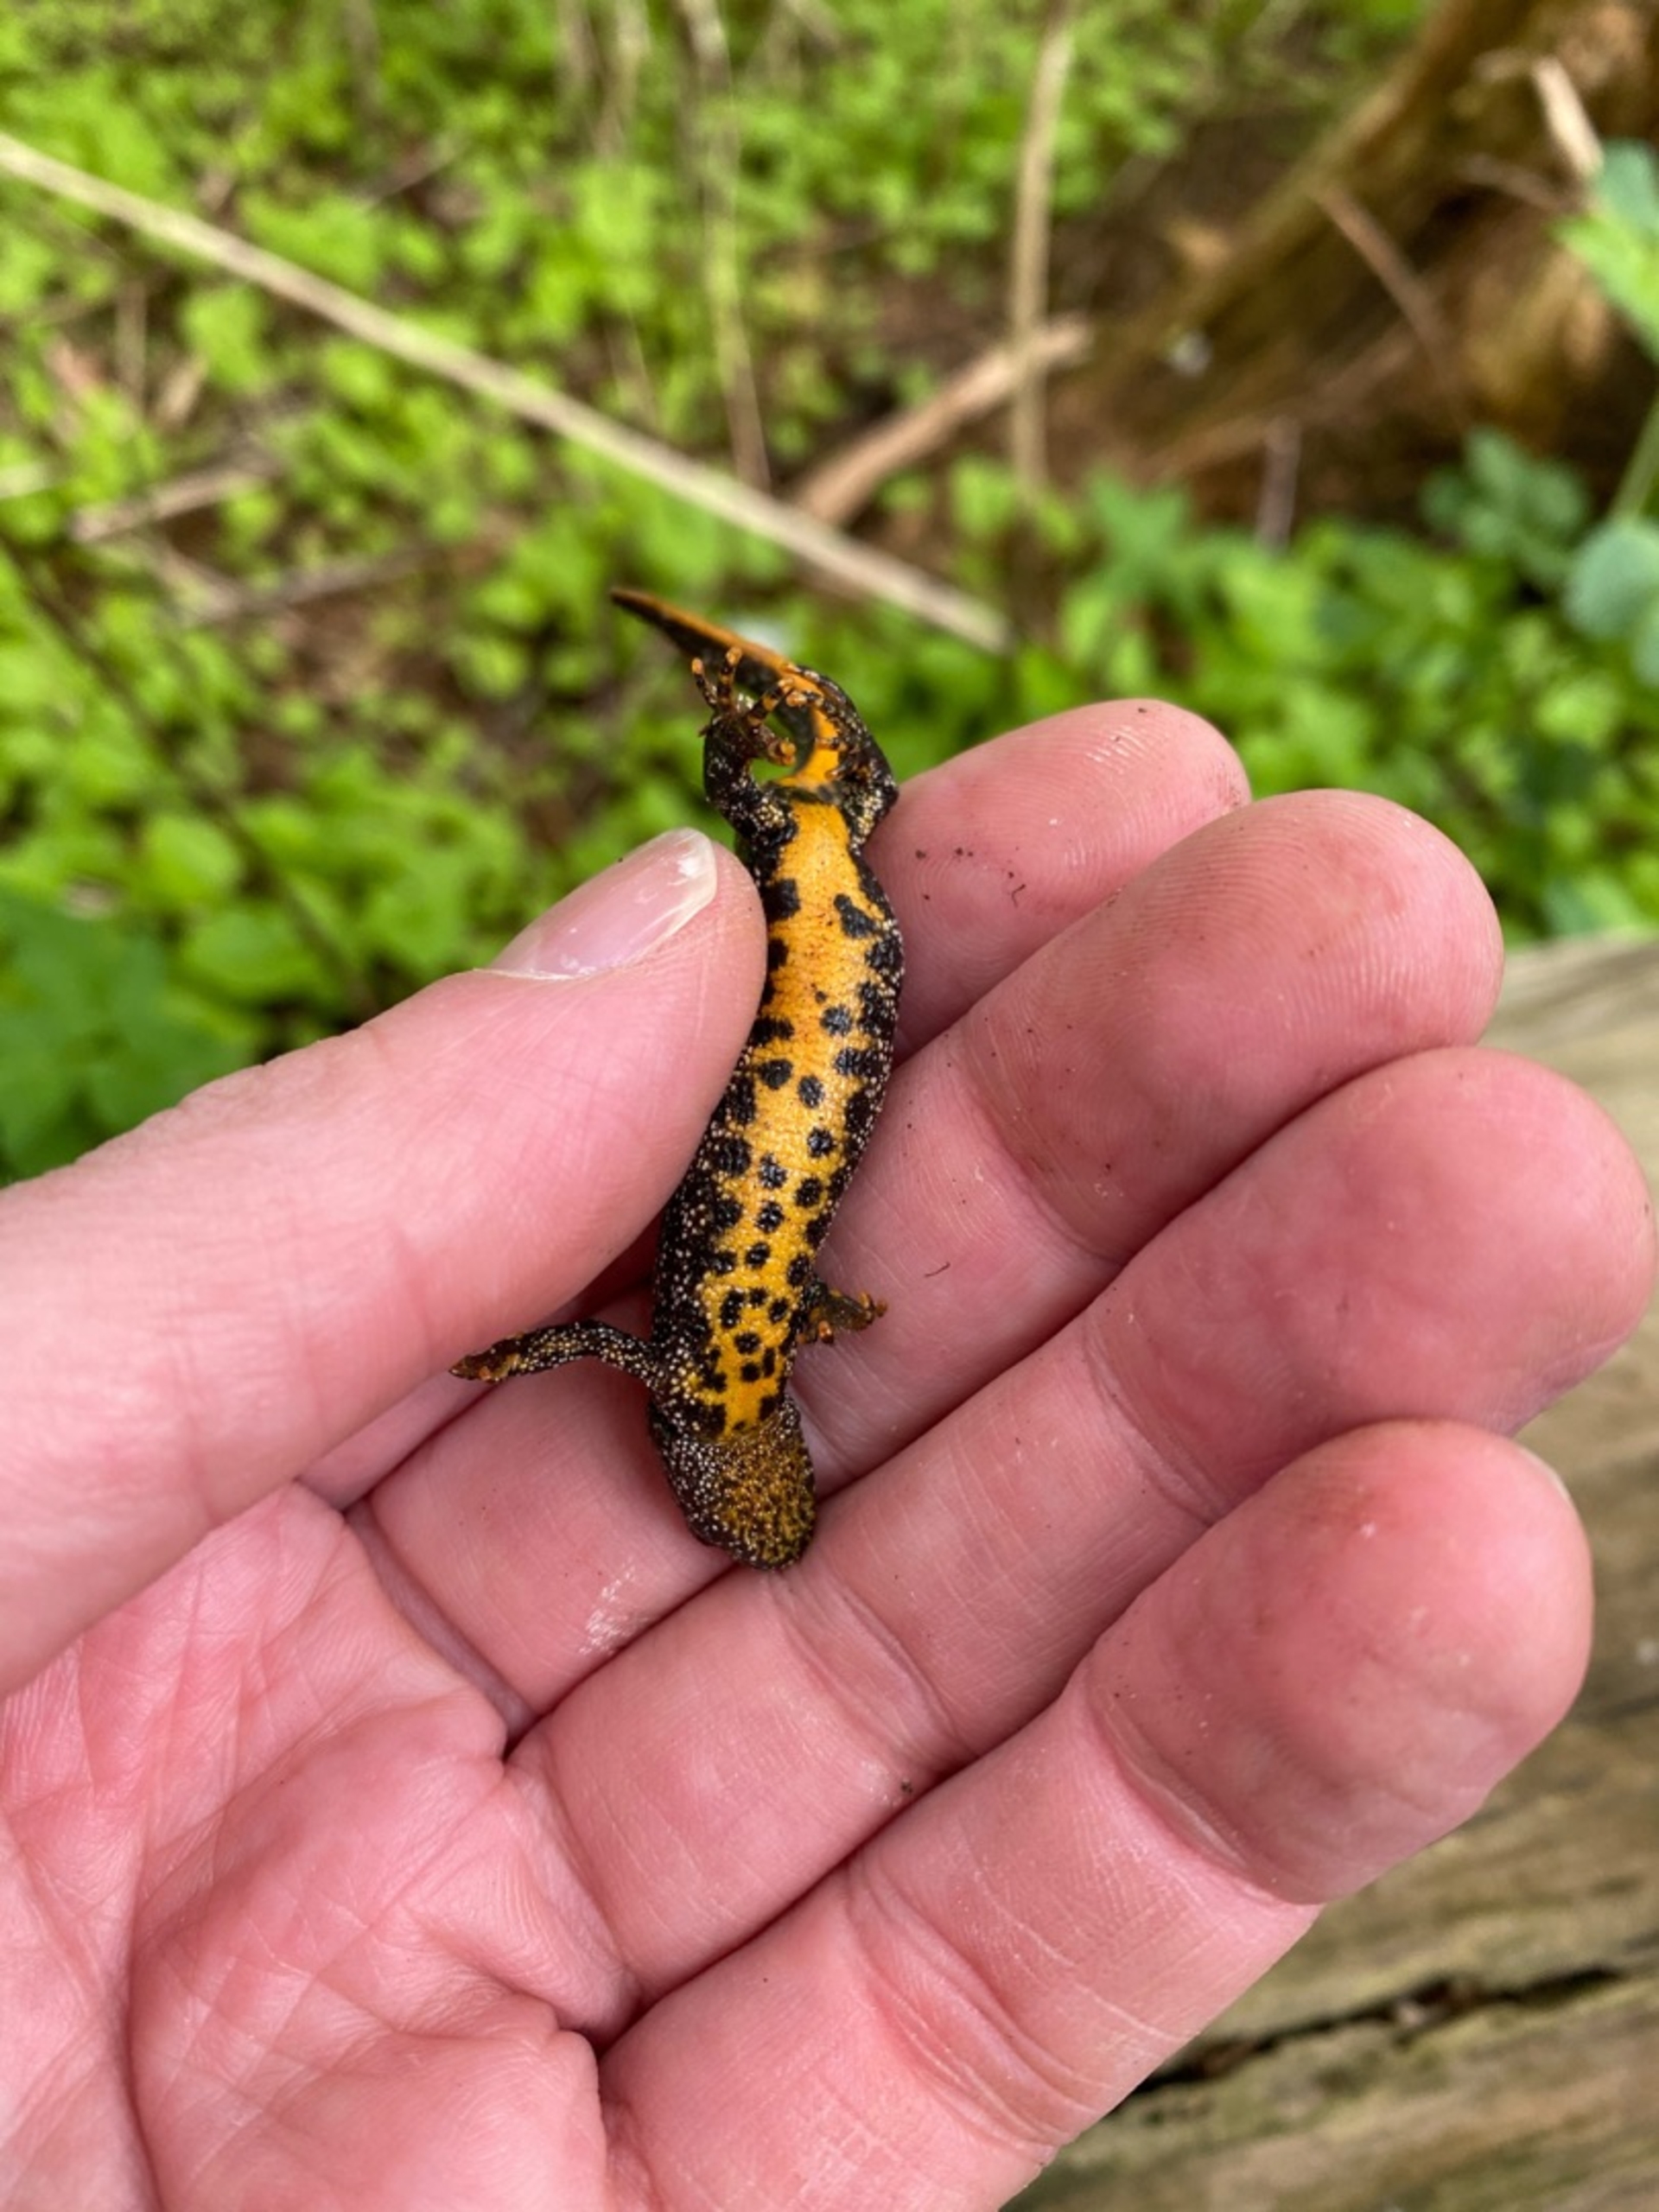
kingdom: Animalia
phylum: Chordata
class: Amphibia
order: Caudata
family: Salamandridae
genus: Triturus
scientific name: Triturus cristatus
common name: Stor vandsalamander
